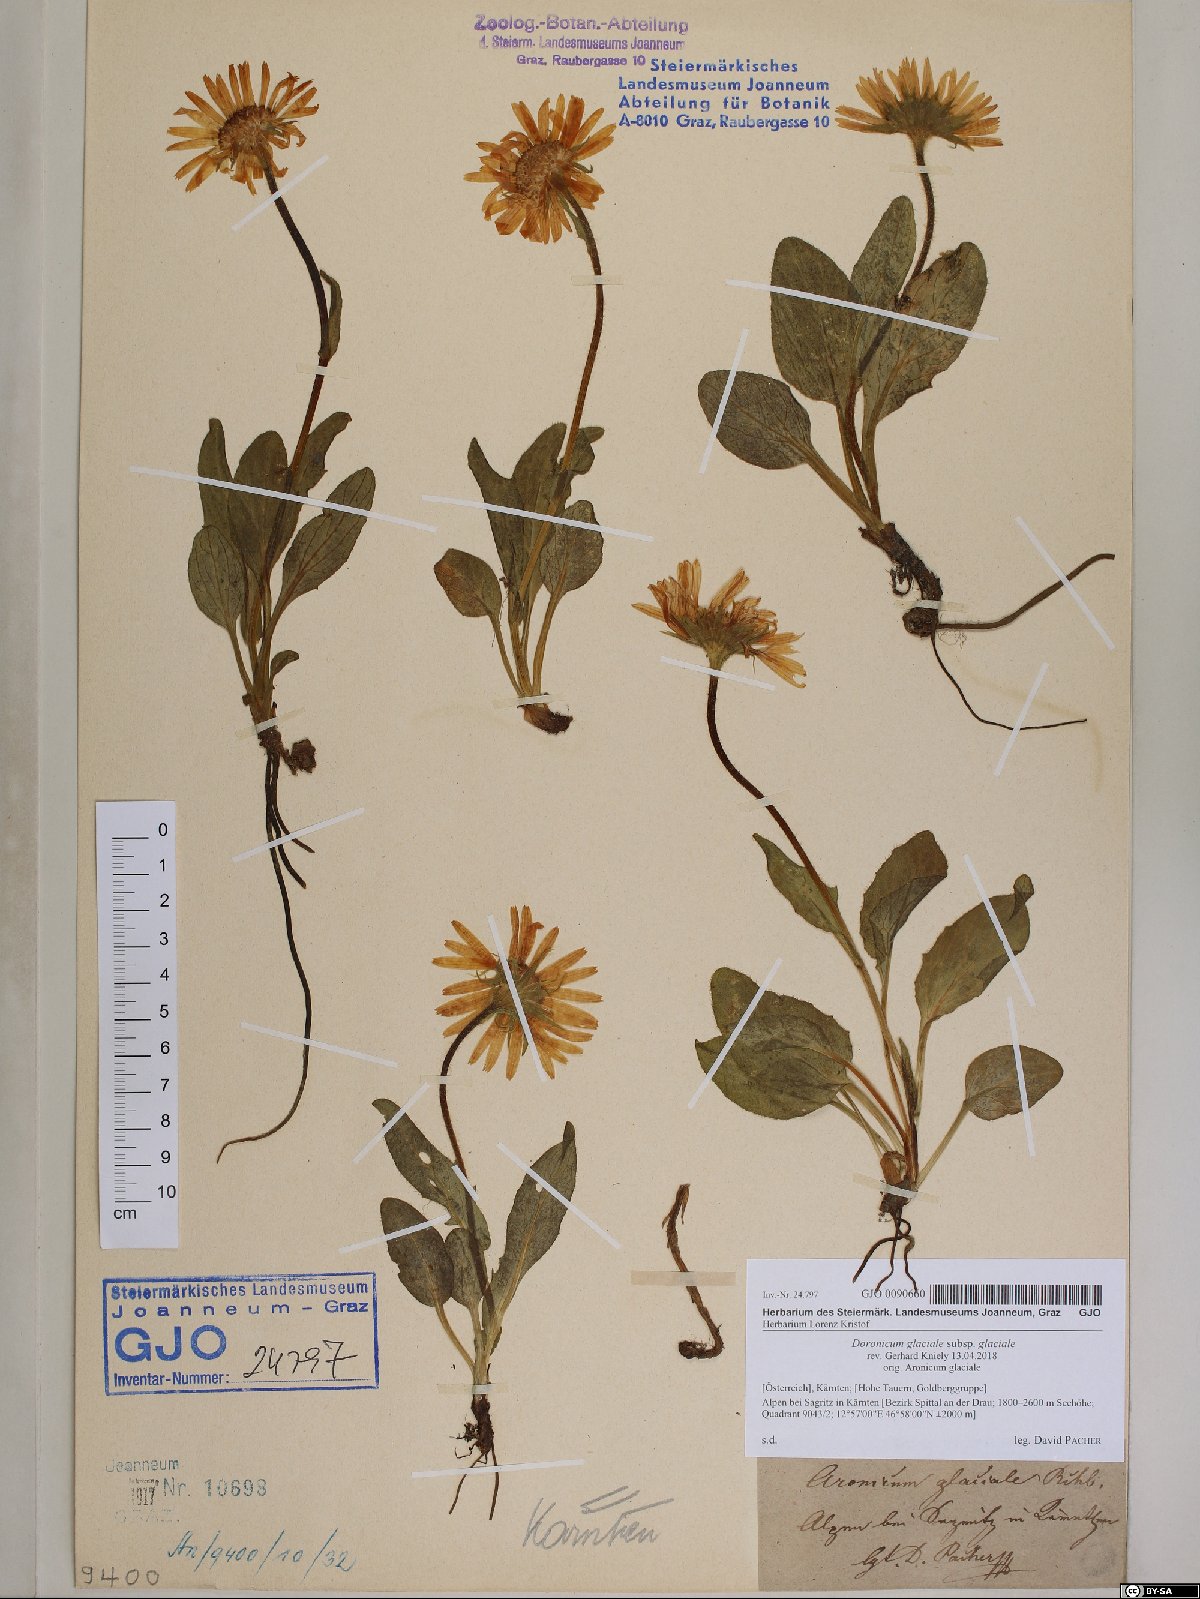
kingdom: Plantae
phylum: Tracheophyta
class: Magnoliopsida
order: Asterales
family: Asteraceae
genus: Doronicum
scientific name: Doronicum glaciale
